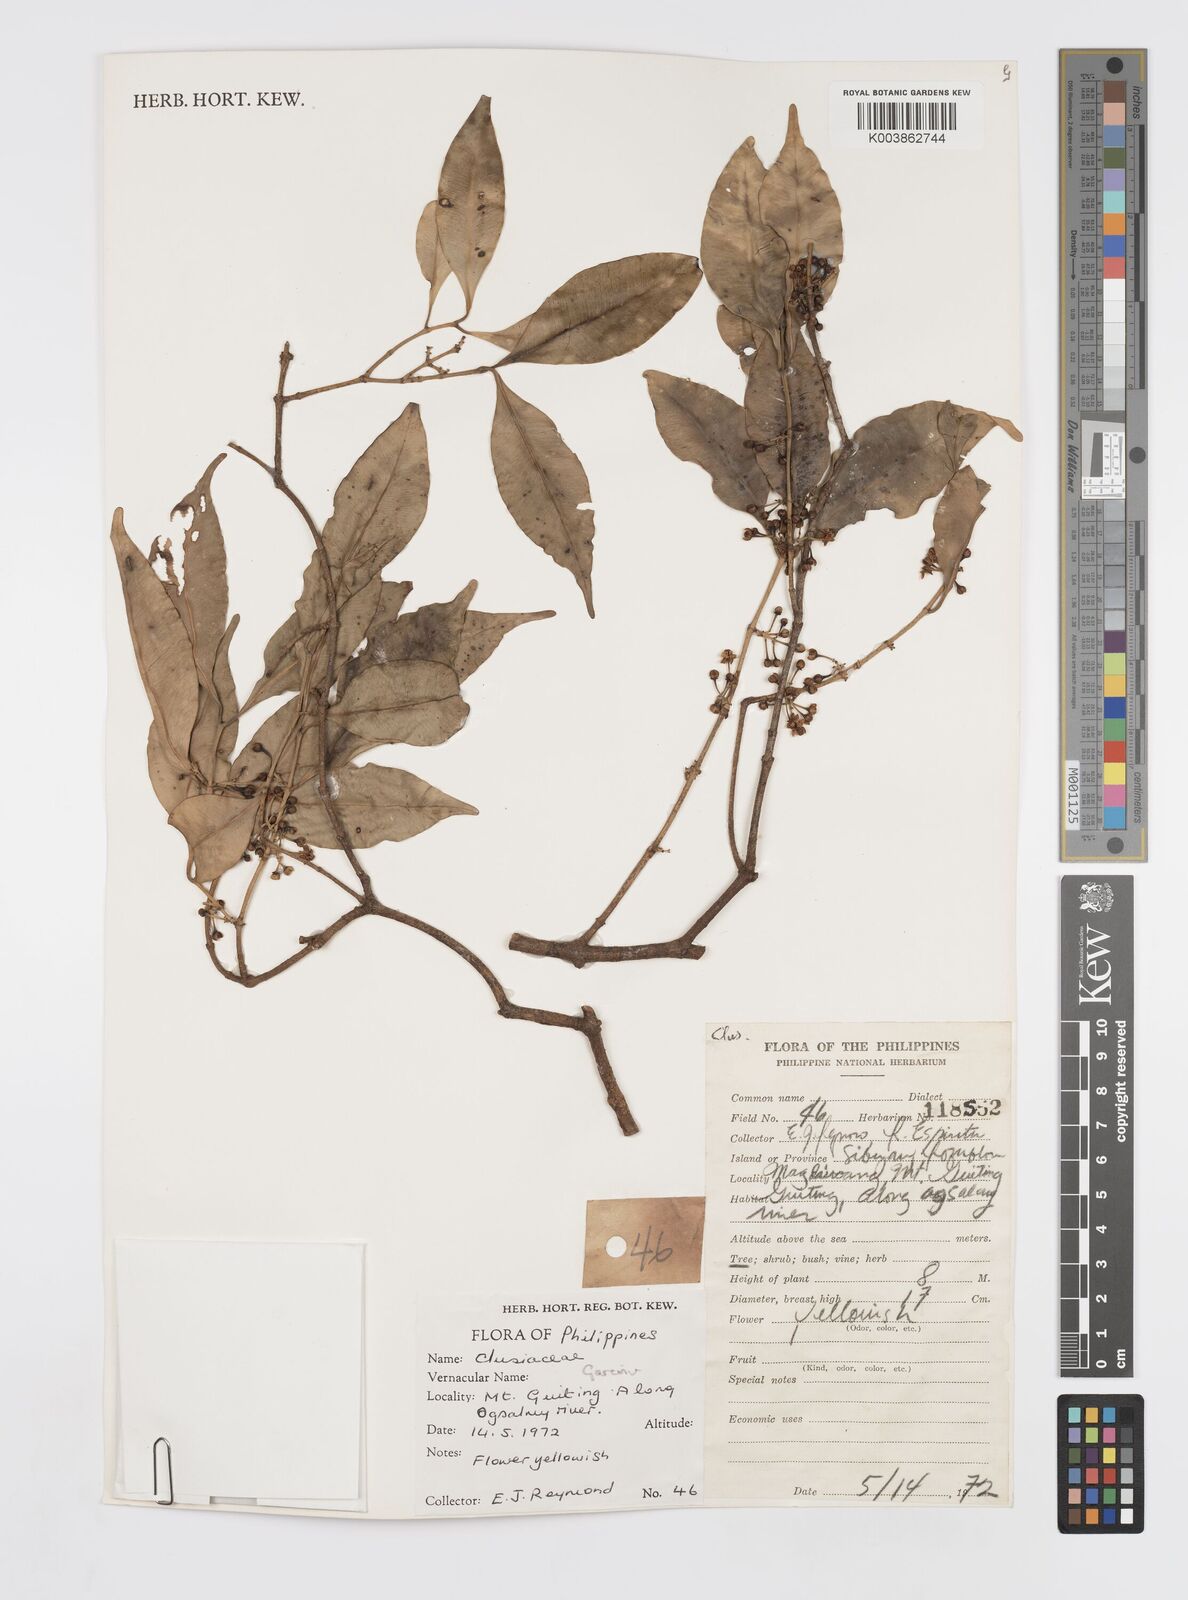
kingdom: Plantae
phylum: Tracheophyta
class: Magnoliopsida
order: Malpighiales
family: Clusiaceae
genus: Garcinia
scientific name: Garcinia
